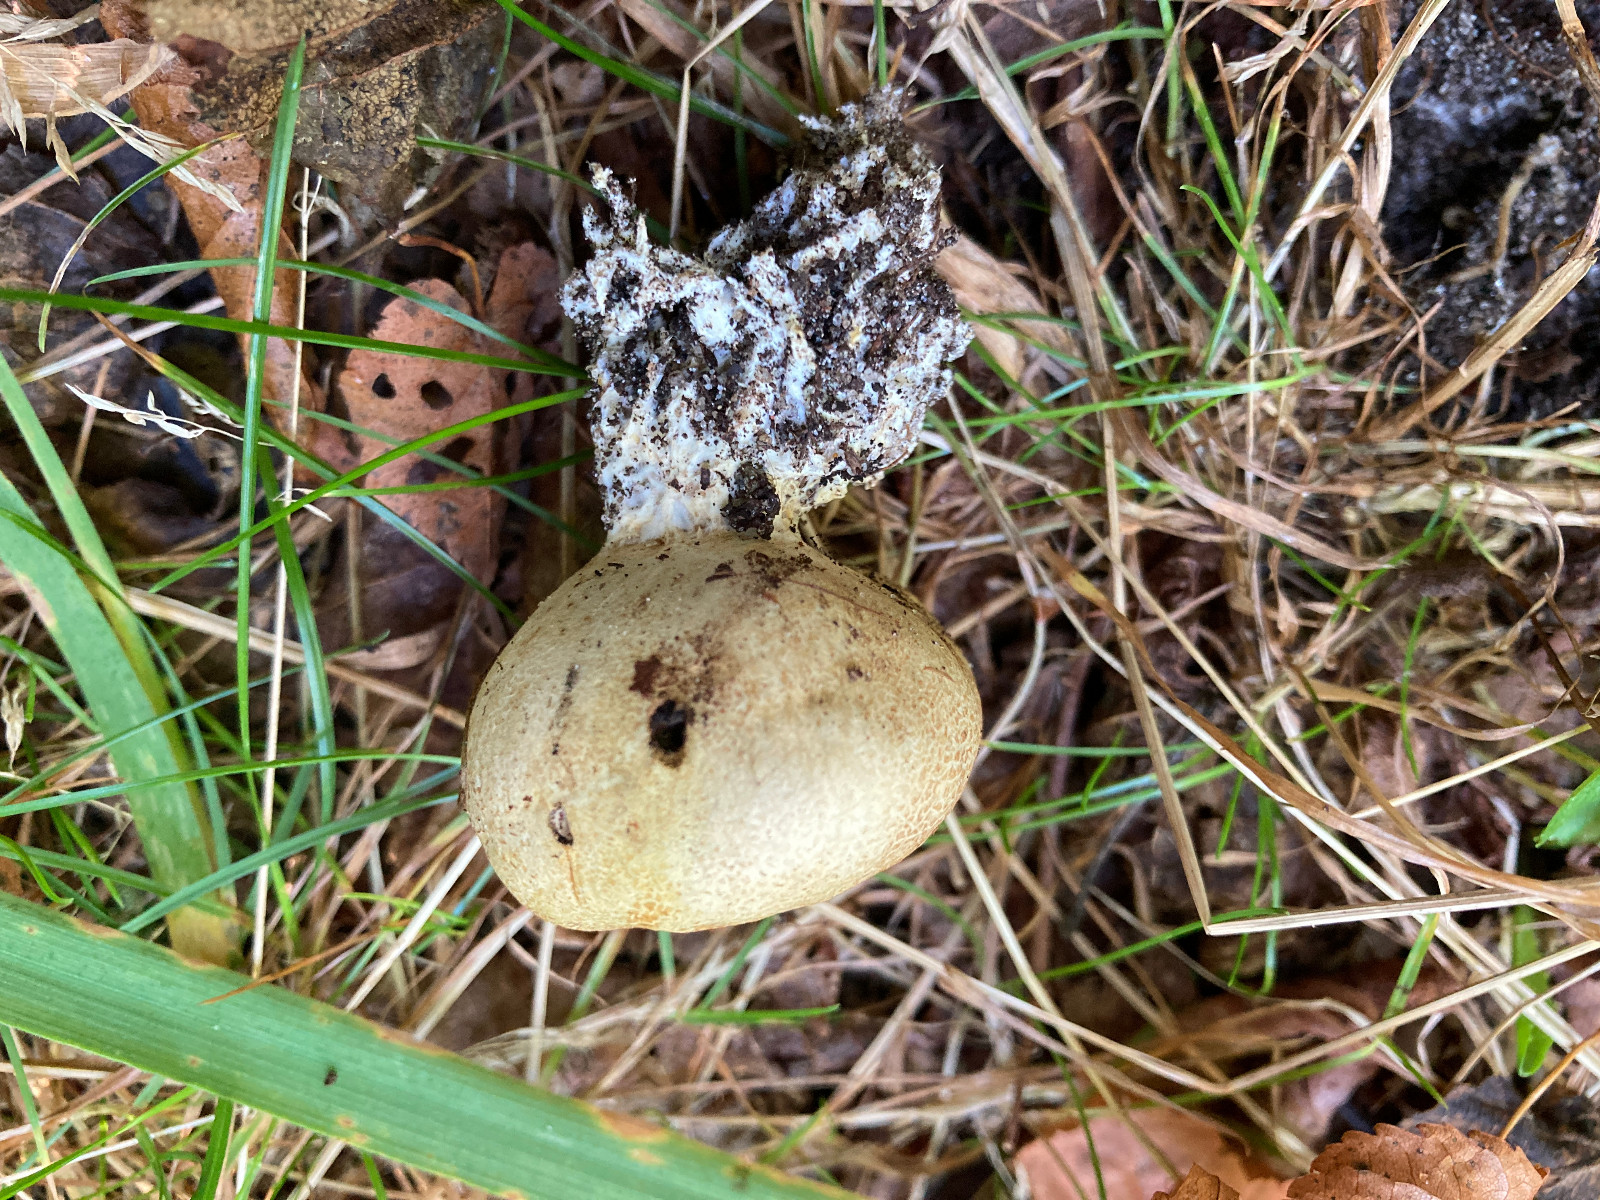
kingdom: Fungi
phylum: Basidiomycota
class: Agaricomycetes
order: Boletales
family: Sclerodermataceae
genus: Scleroderma
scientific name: Scleroderma verrucosum
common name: stilket bruskbold
